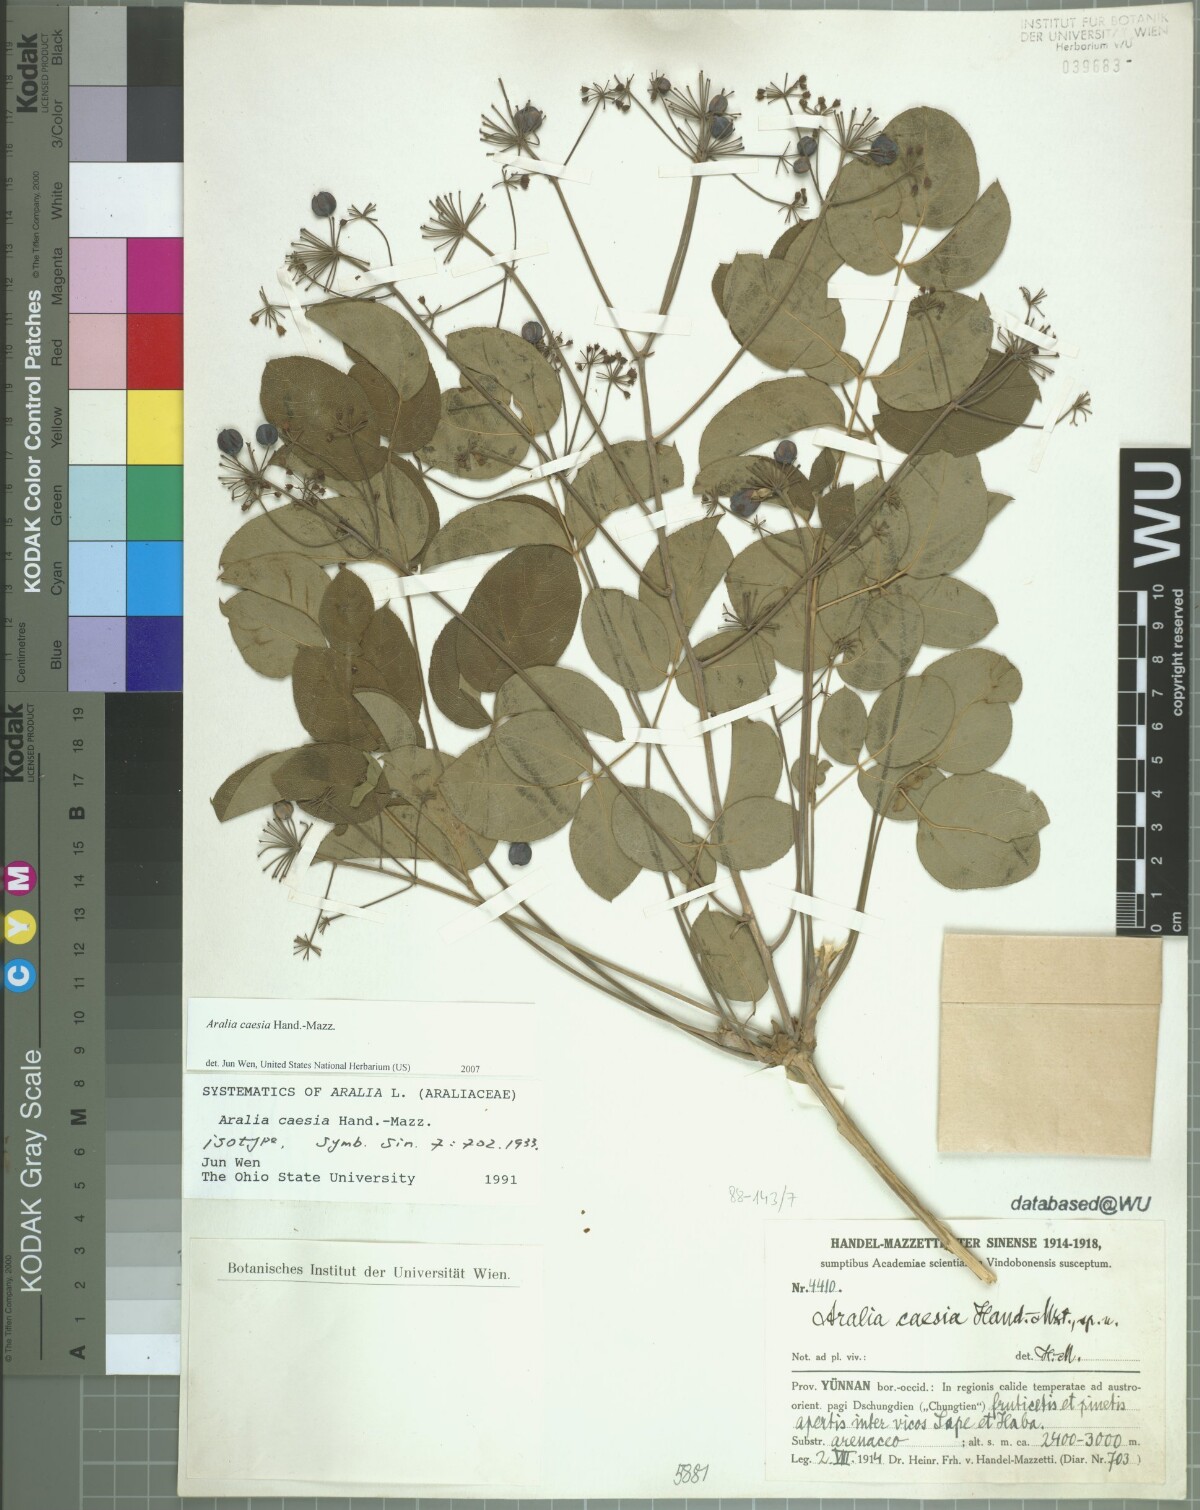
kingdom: Plantae
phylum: Tracheophyta
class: Magnoliopsida
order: Apiales
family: Araliaceae
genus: Aralia
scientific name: Aralia caesia
